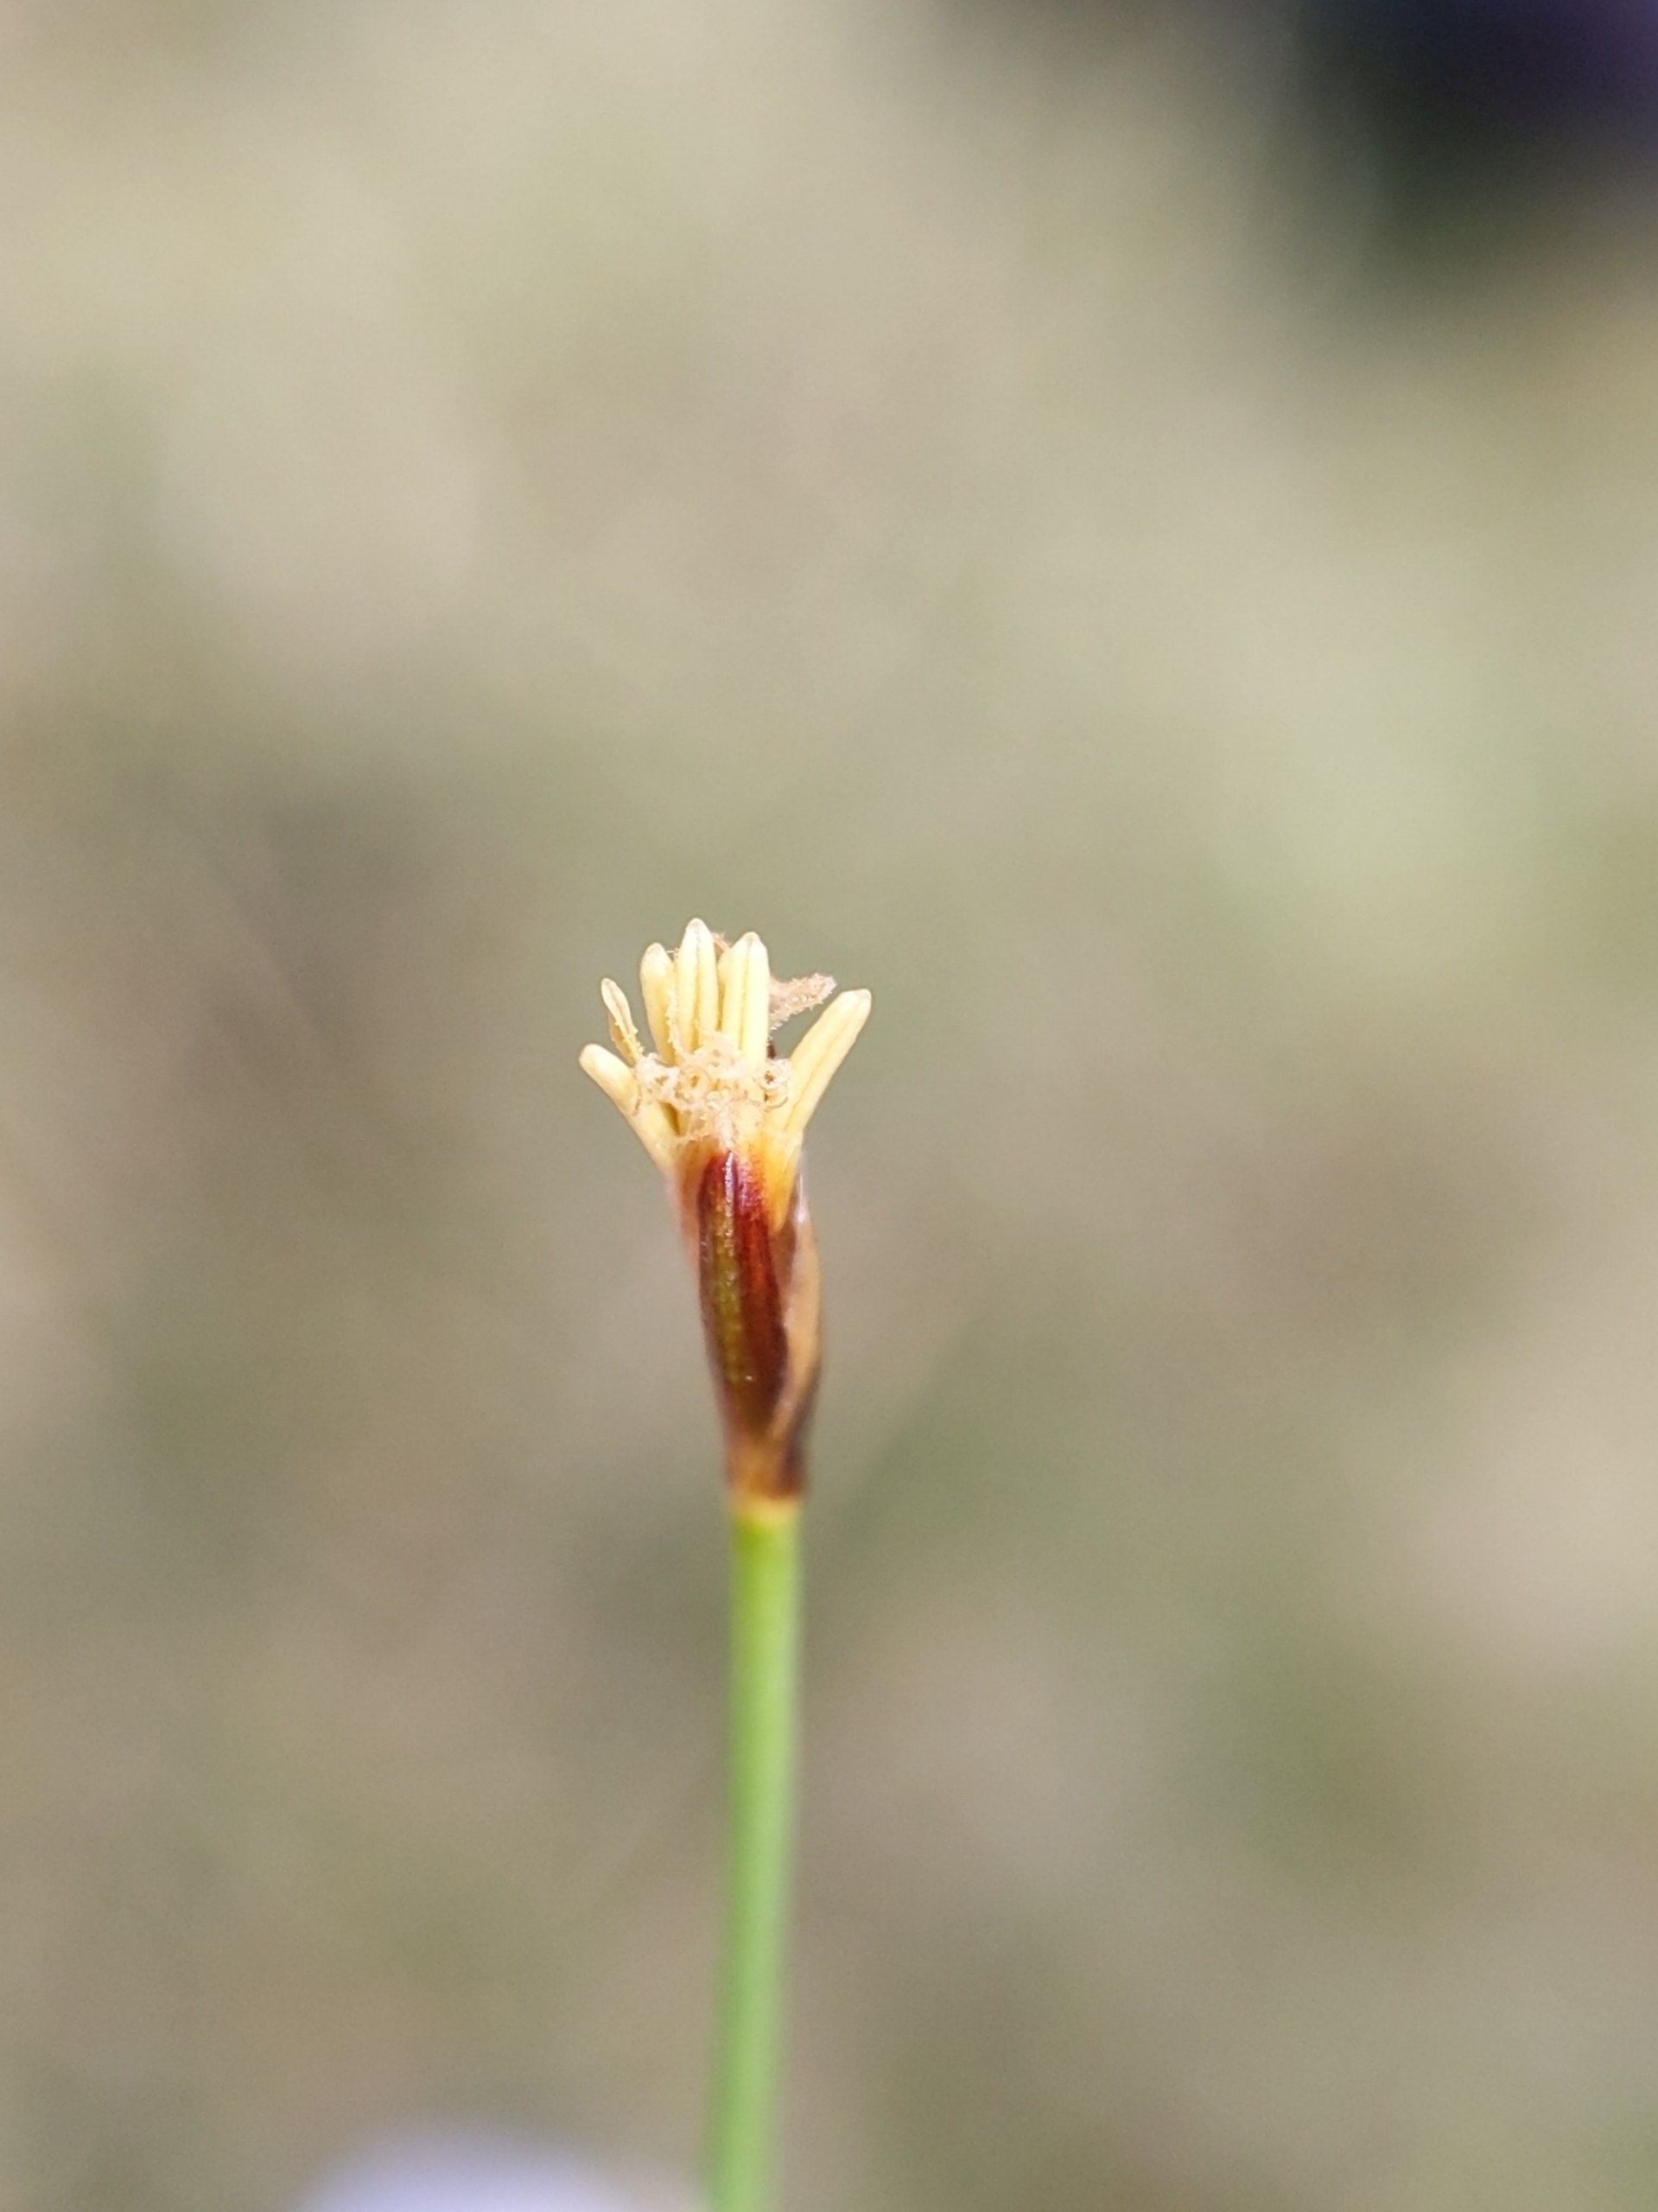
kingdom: Plantae
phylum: Tracheophyta
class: Liliopsida
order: Poales
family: Cyperaceae
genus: Eleocharis
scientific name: Eleocharis quinqueflora
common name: Fåblomstret kogleaks
